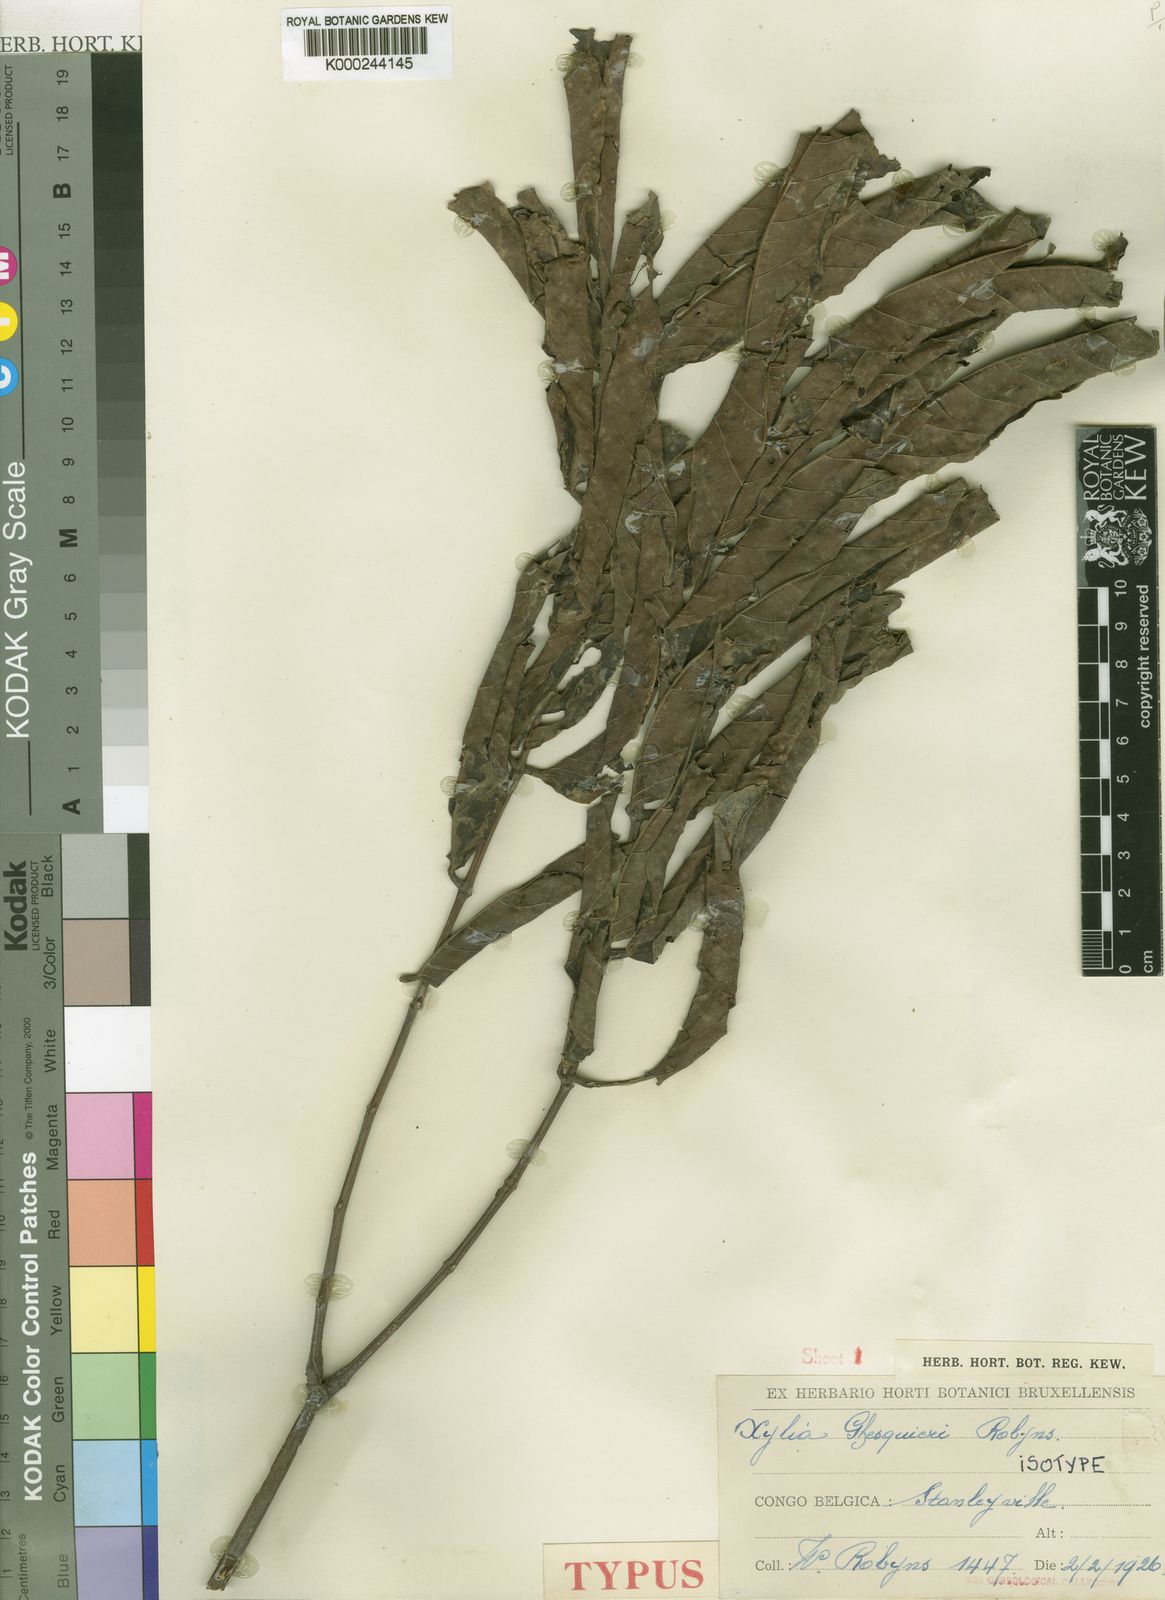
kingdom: Plantae
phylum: Tracheophyta
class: Magnoliopsida
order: Fabales
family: Fabaceae
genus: Xylia
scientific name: Xylia ghesquierei
